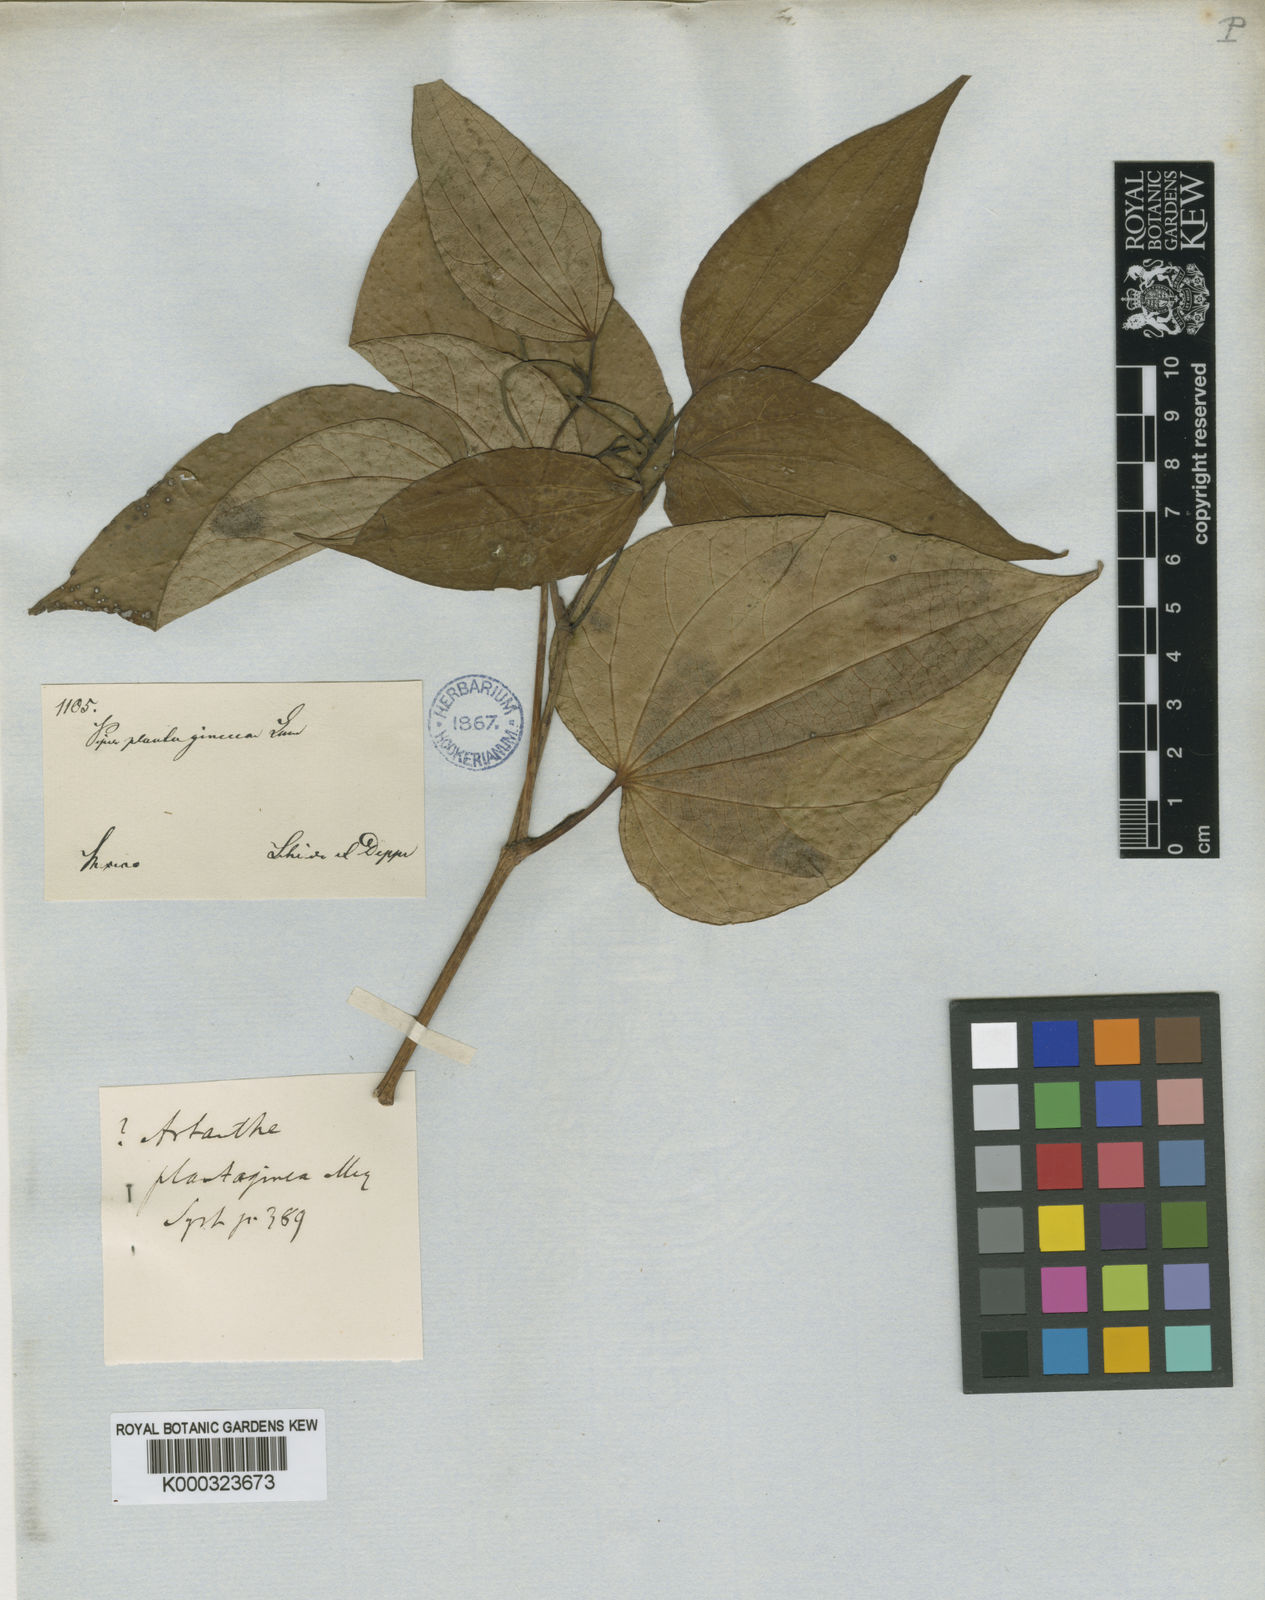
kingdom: Plantae
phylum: Tracheophyta
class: Magnoliopsida
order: Piperales
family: Piperaceae
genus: Piper
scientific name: Piper
